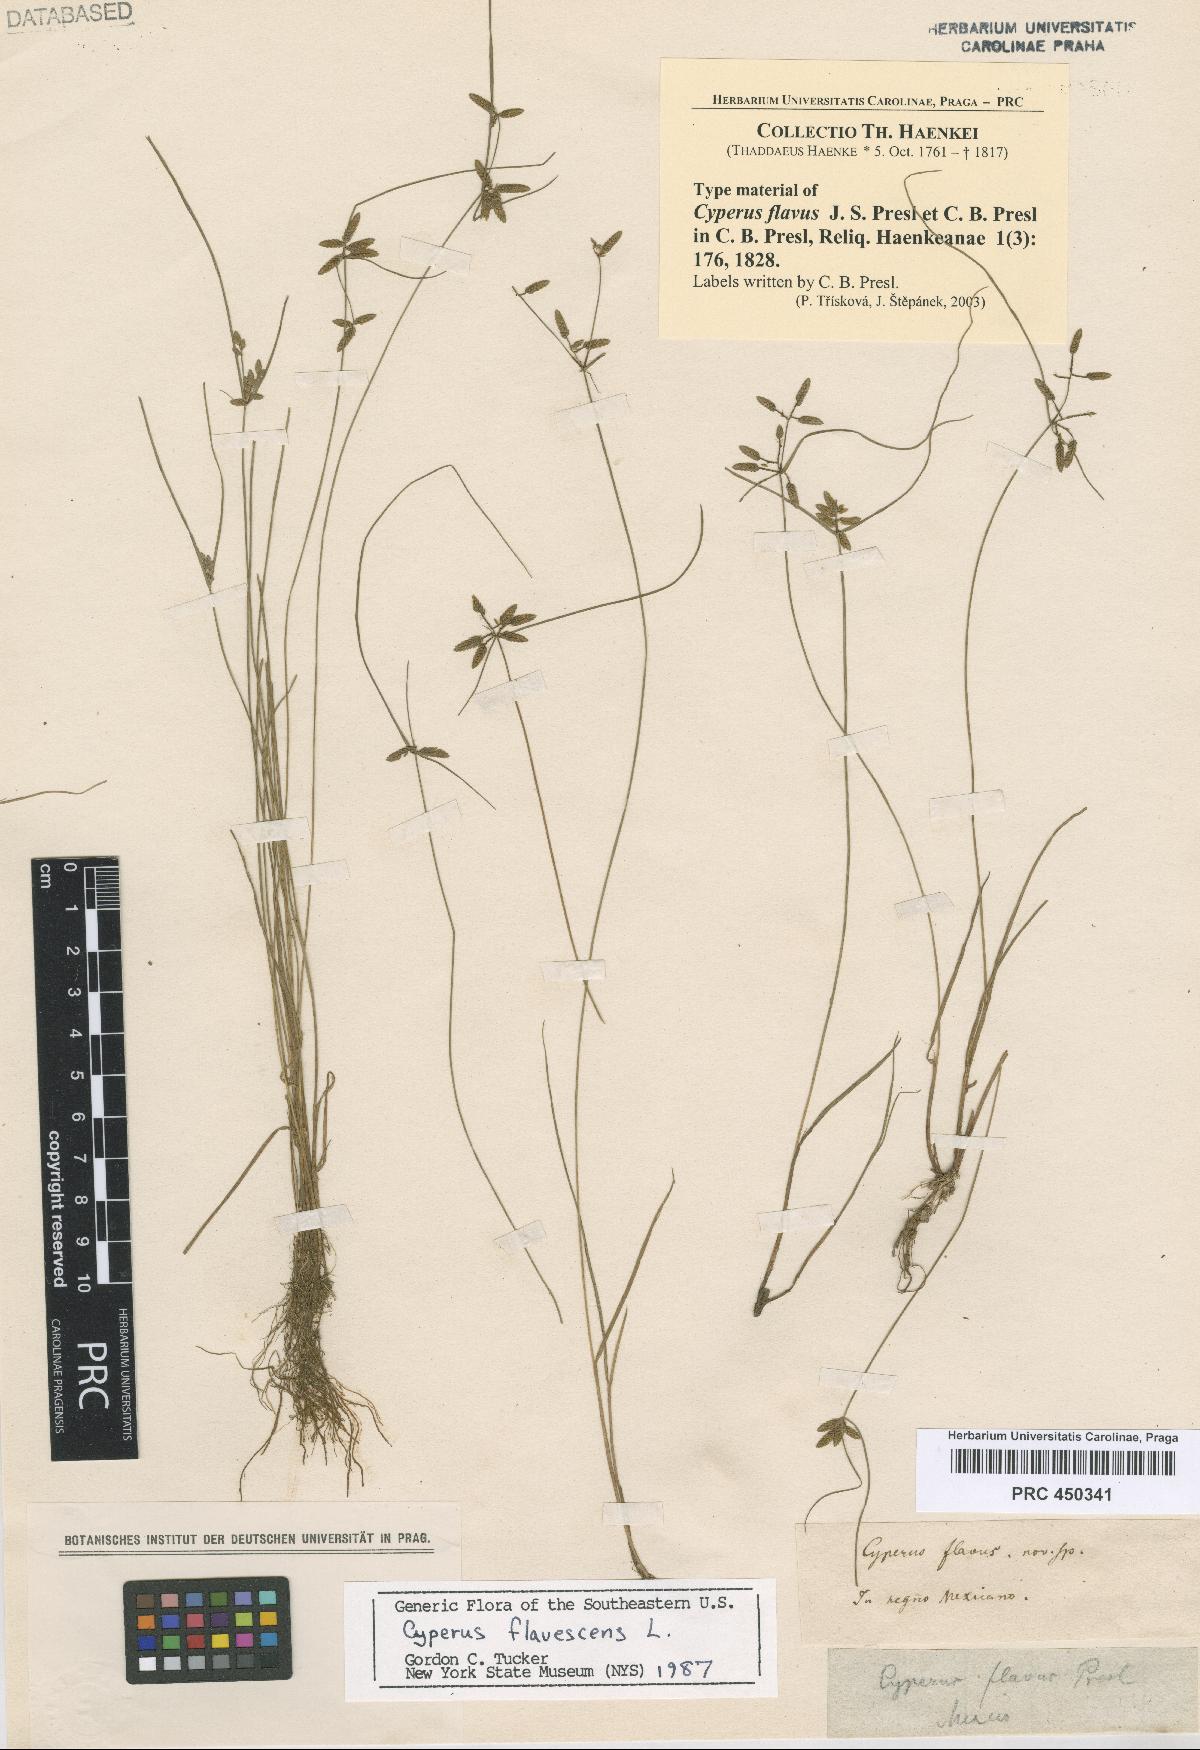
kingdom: Plantae
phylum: Tracheophyta
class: Liliopsida
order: Poales
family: Cyperaceae
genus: Cyperus
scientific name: Cyperus flavescens
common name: Yellow galingale
